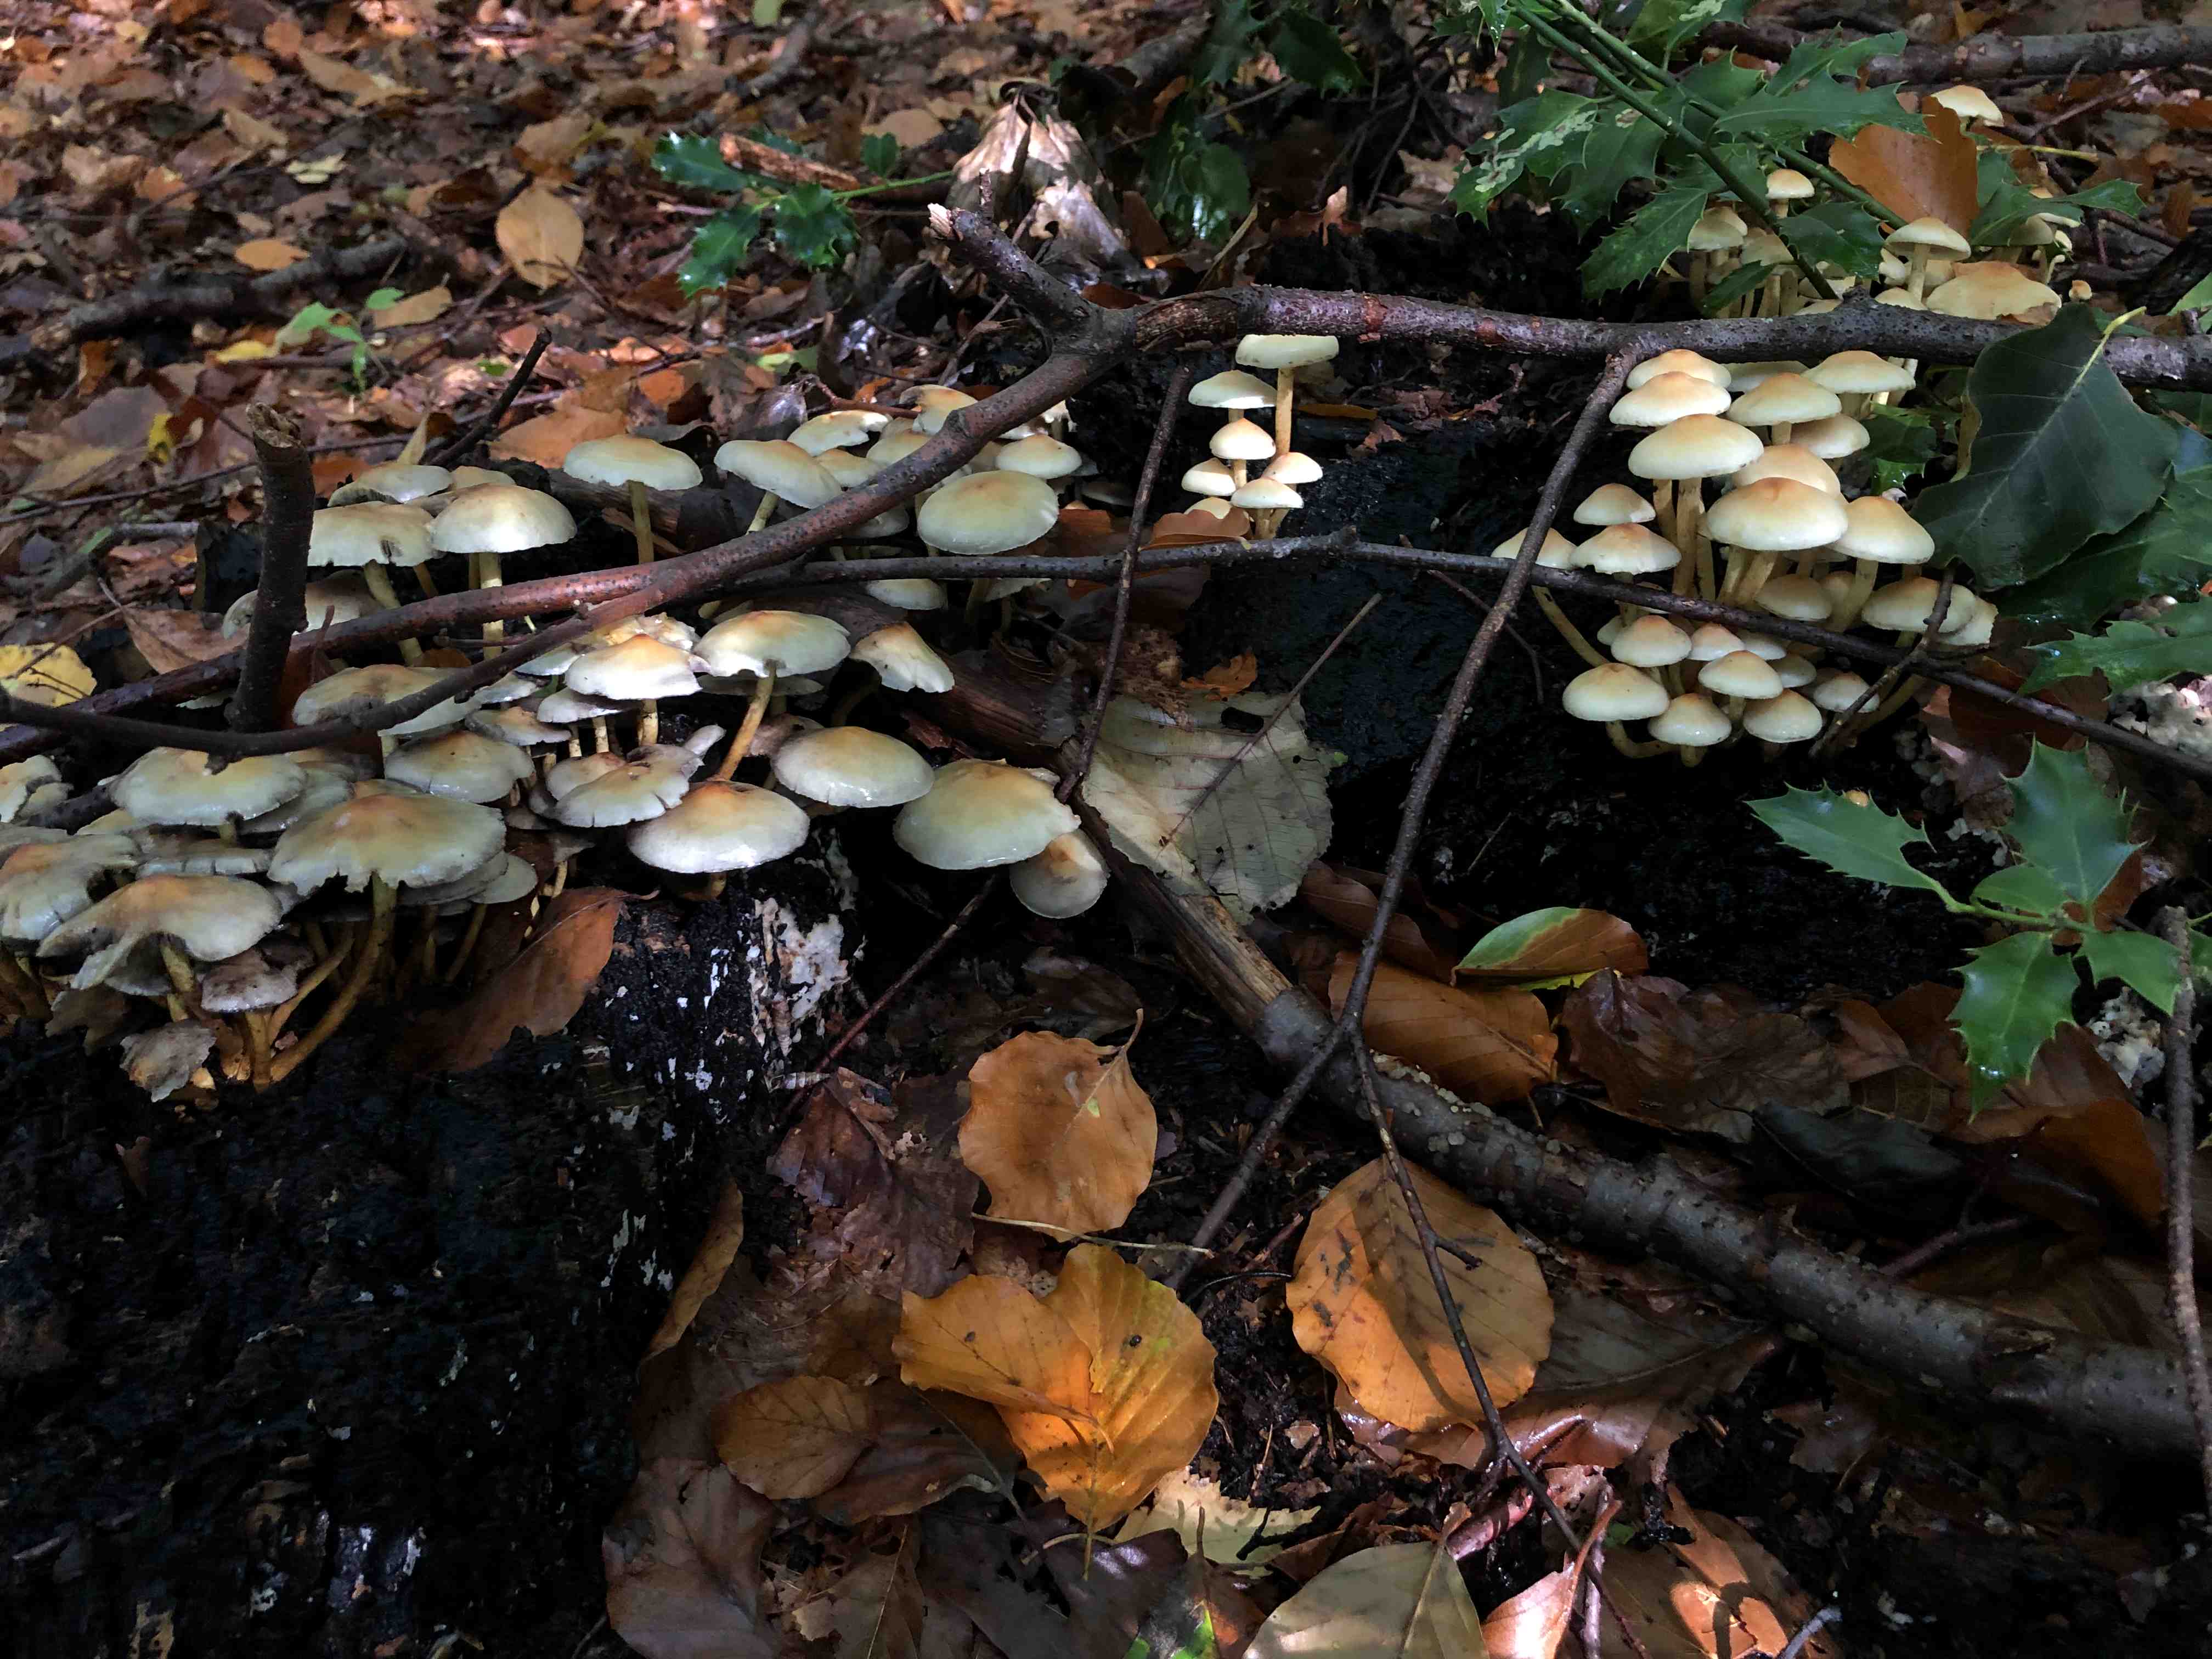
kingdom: Fungi
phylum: Basidiomycota
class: Agaricomycetes
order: Agaricales
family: Strophariaceae
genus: Hypholoma
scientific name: Hypholoma fasciculare
